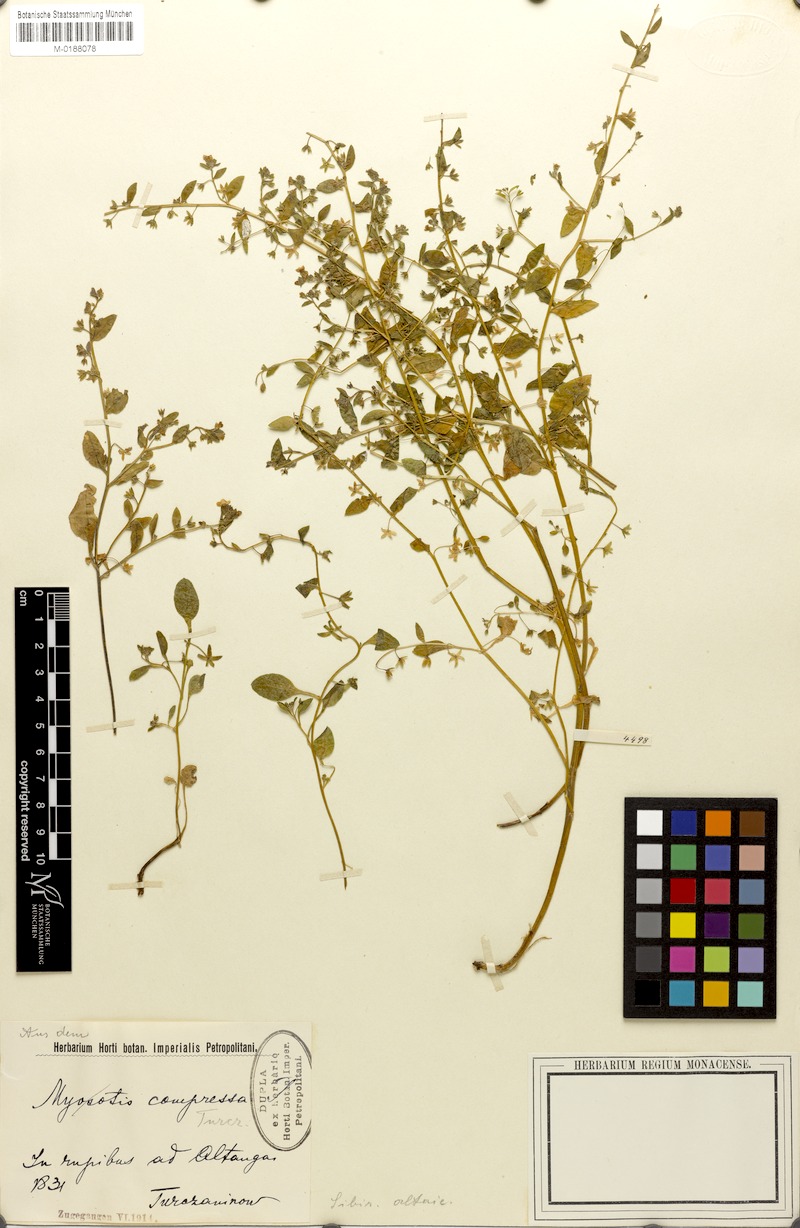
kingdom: Plantae
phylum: Tracheophyta
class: Magnoliopsida
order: Boraginales
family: Boraginaceae
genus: Anoplocaryum
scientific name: Anoplocaryum compressum
